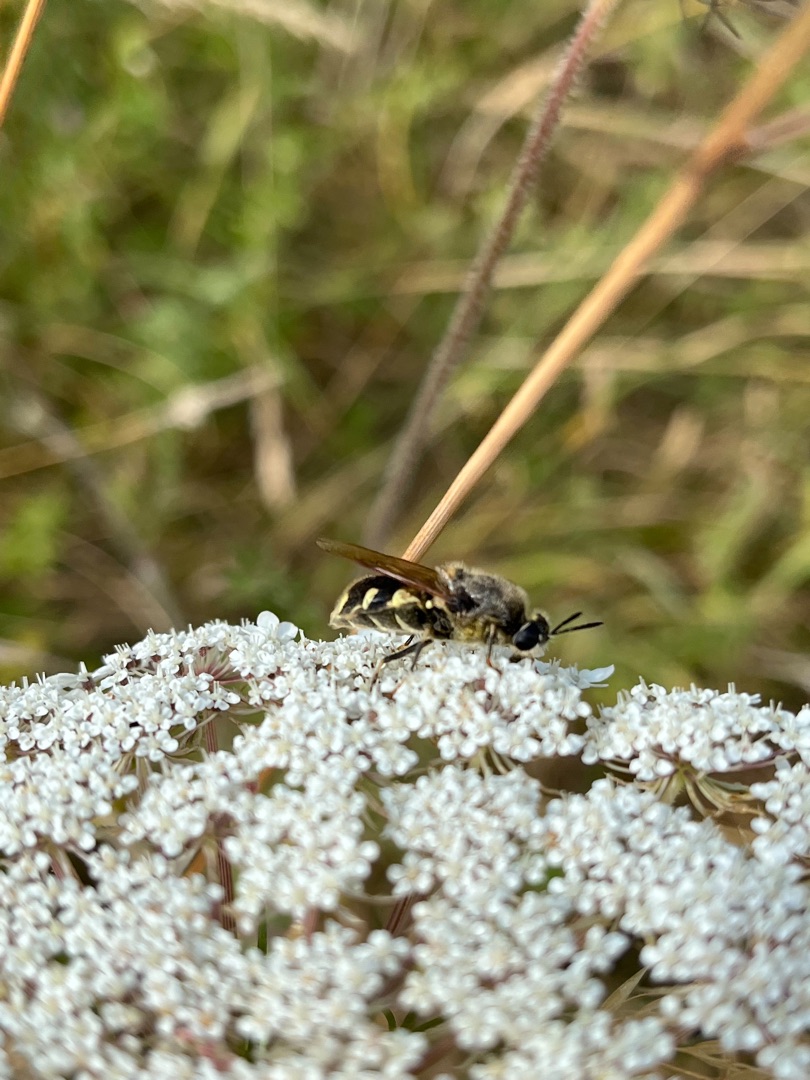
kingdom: Animalia
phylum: Arthropoda
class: Insecta
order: Diptera
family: Stratiomyidae
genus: Stratiomys
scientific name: Stratiomys singularior
